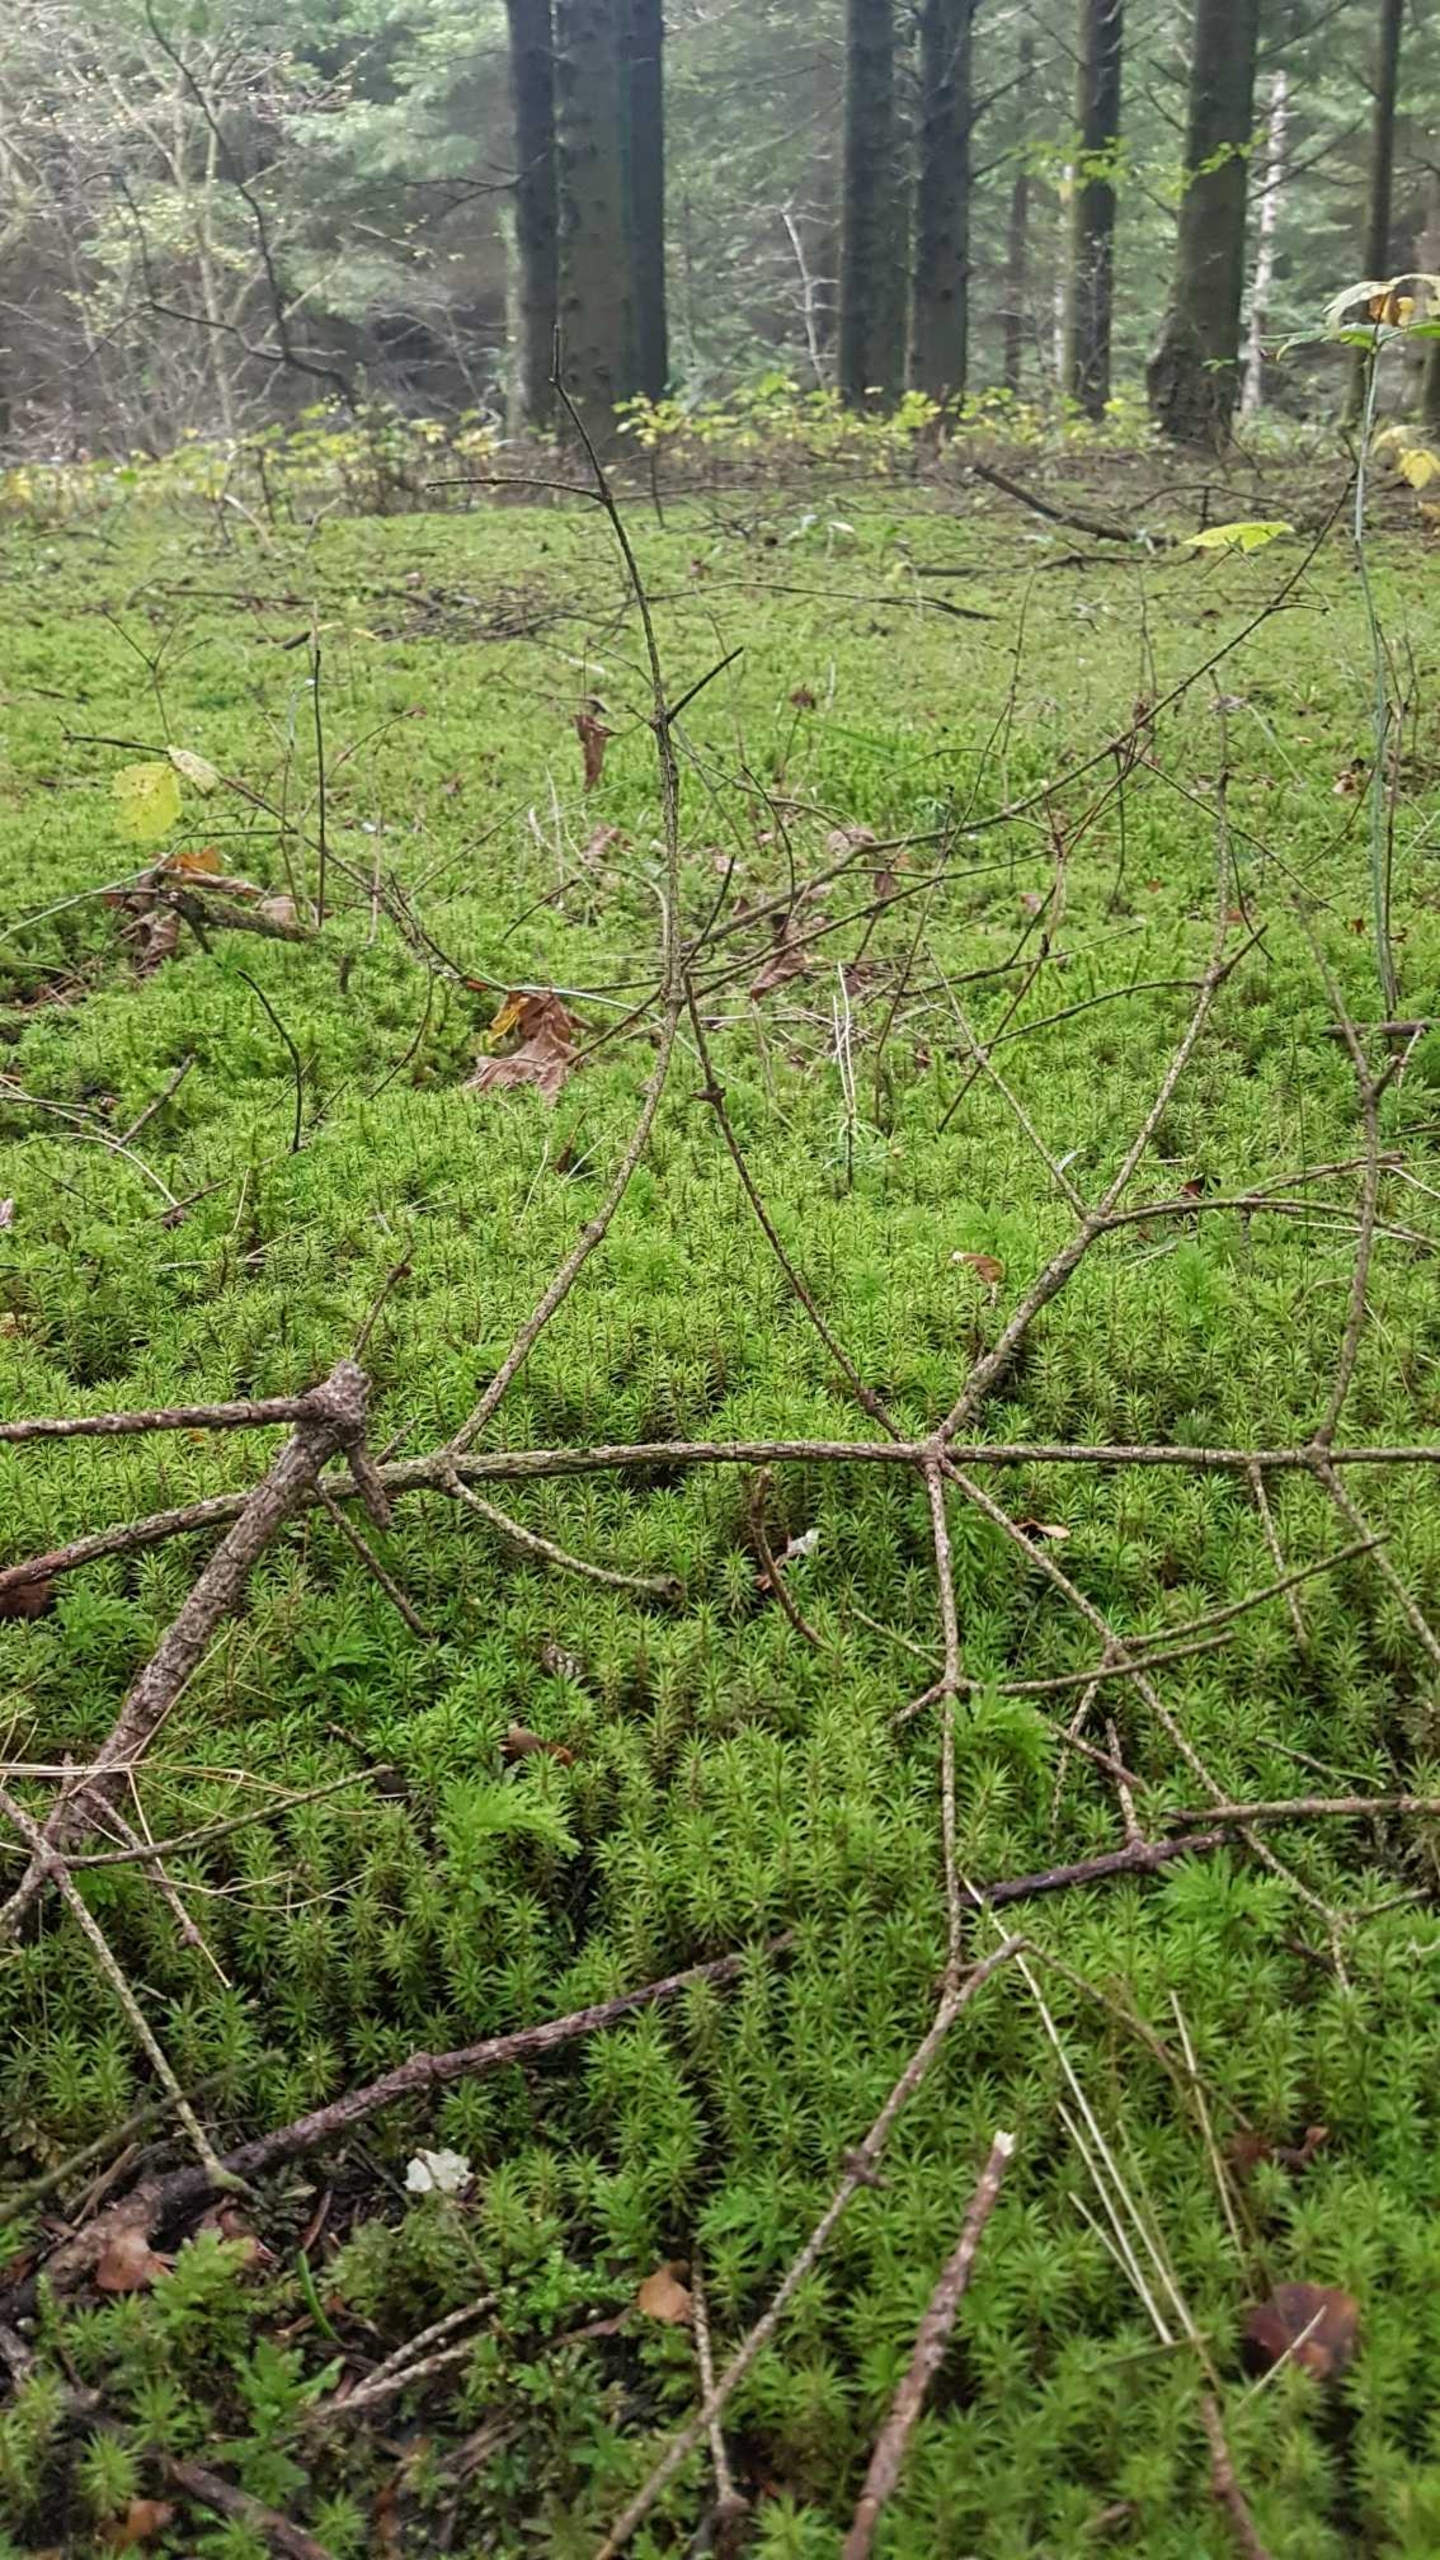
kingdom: Plantae
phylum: Bryophyta
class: Bryopsida
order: Timmiales
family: Timmiaceae
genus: Timmia
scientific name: Timmia austriaca
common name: Skov-timmia
